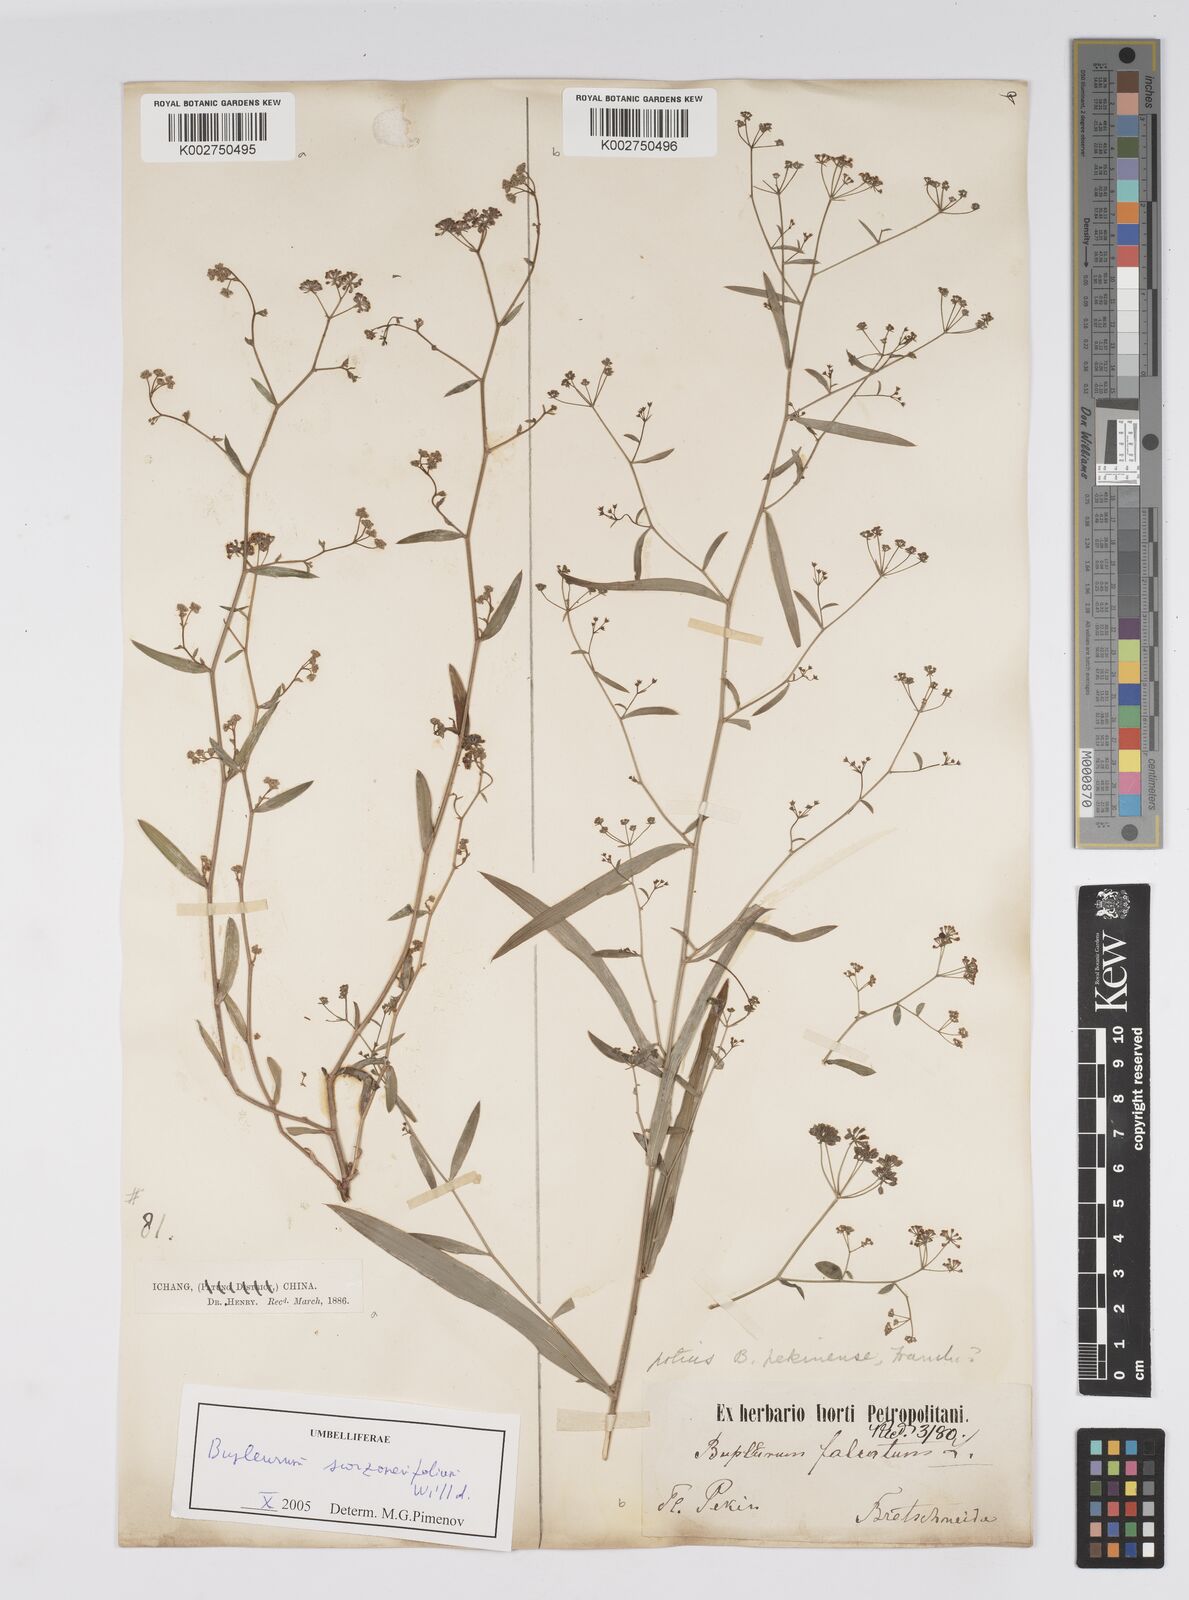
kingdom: Plantae
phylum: Tracheophyta
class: Magnoliopsida
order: Apiales
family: Apiaceae
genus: Bupleurum
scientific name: Bupleurum krylovianum
